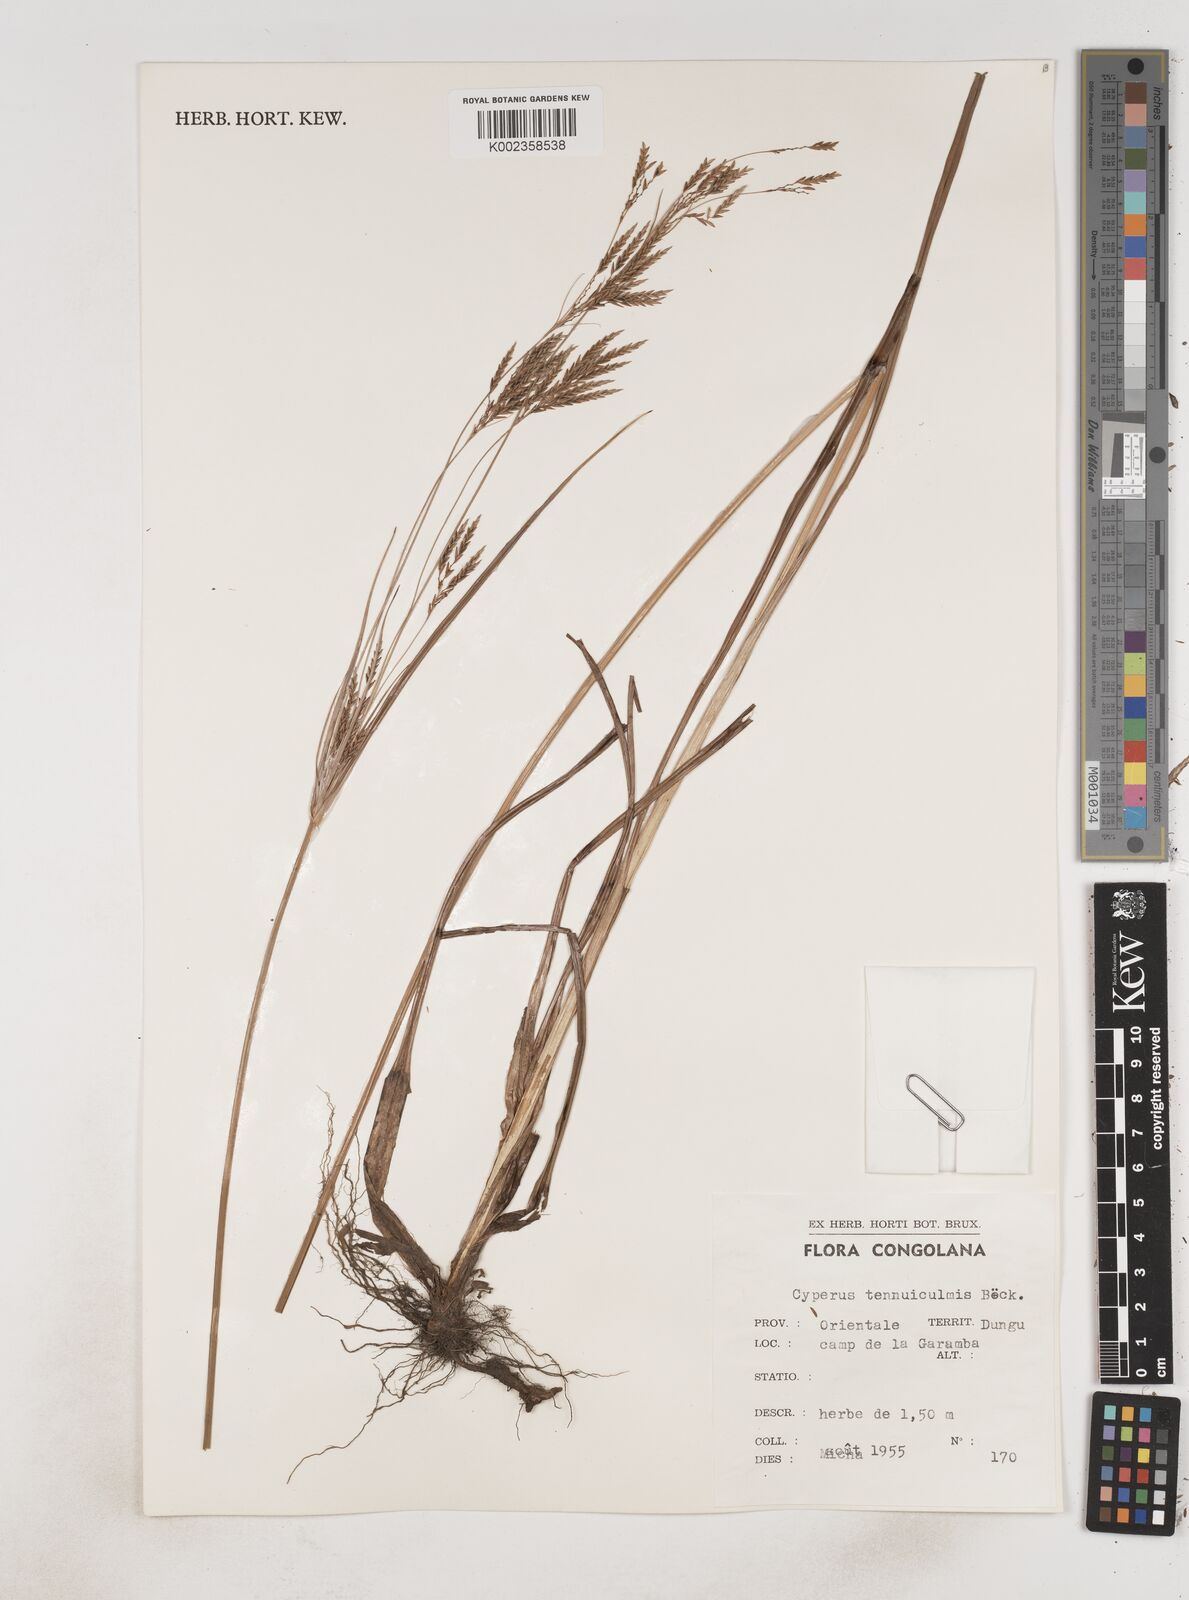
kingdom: Plantae
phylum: Tracheophyta
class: Liliopsida
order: Poales
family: Cyperaceae
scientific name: Cyperaceae
